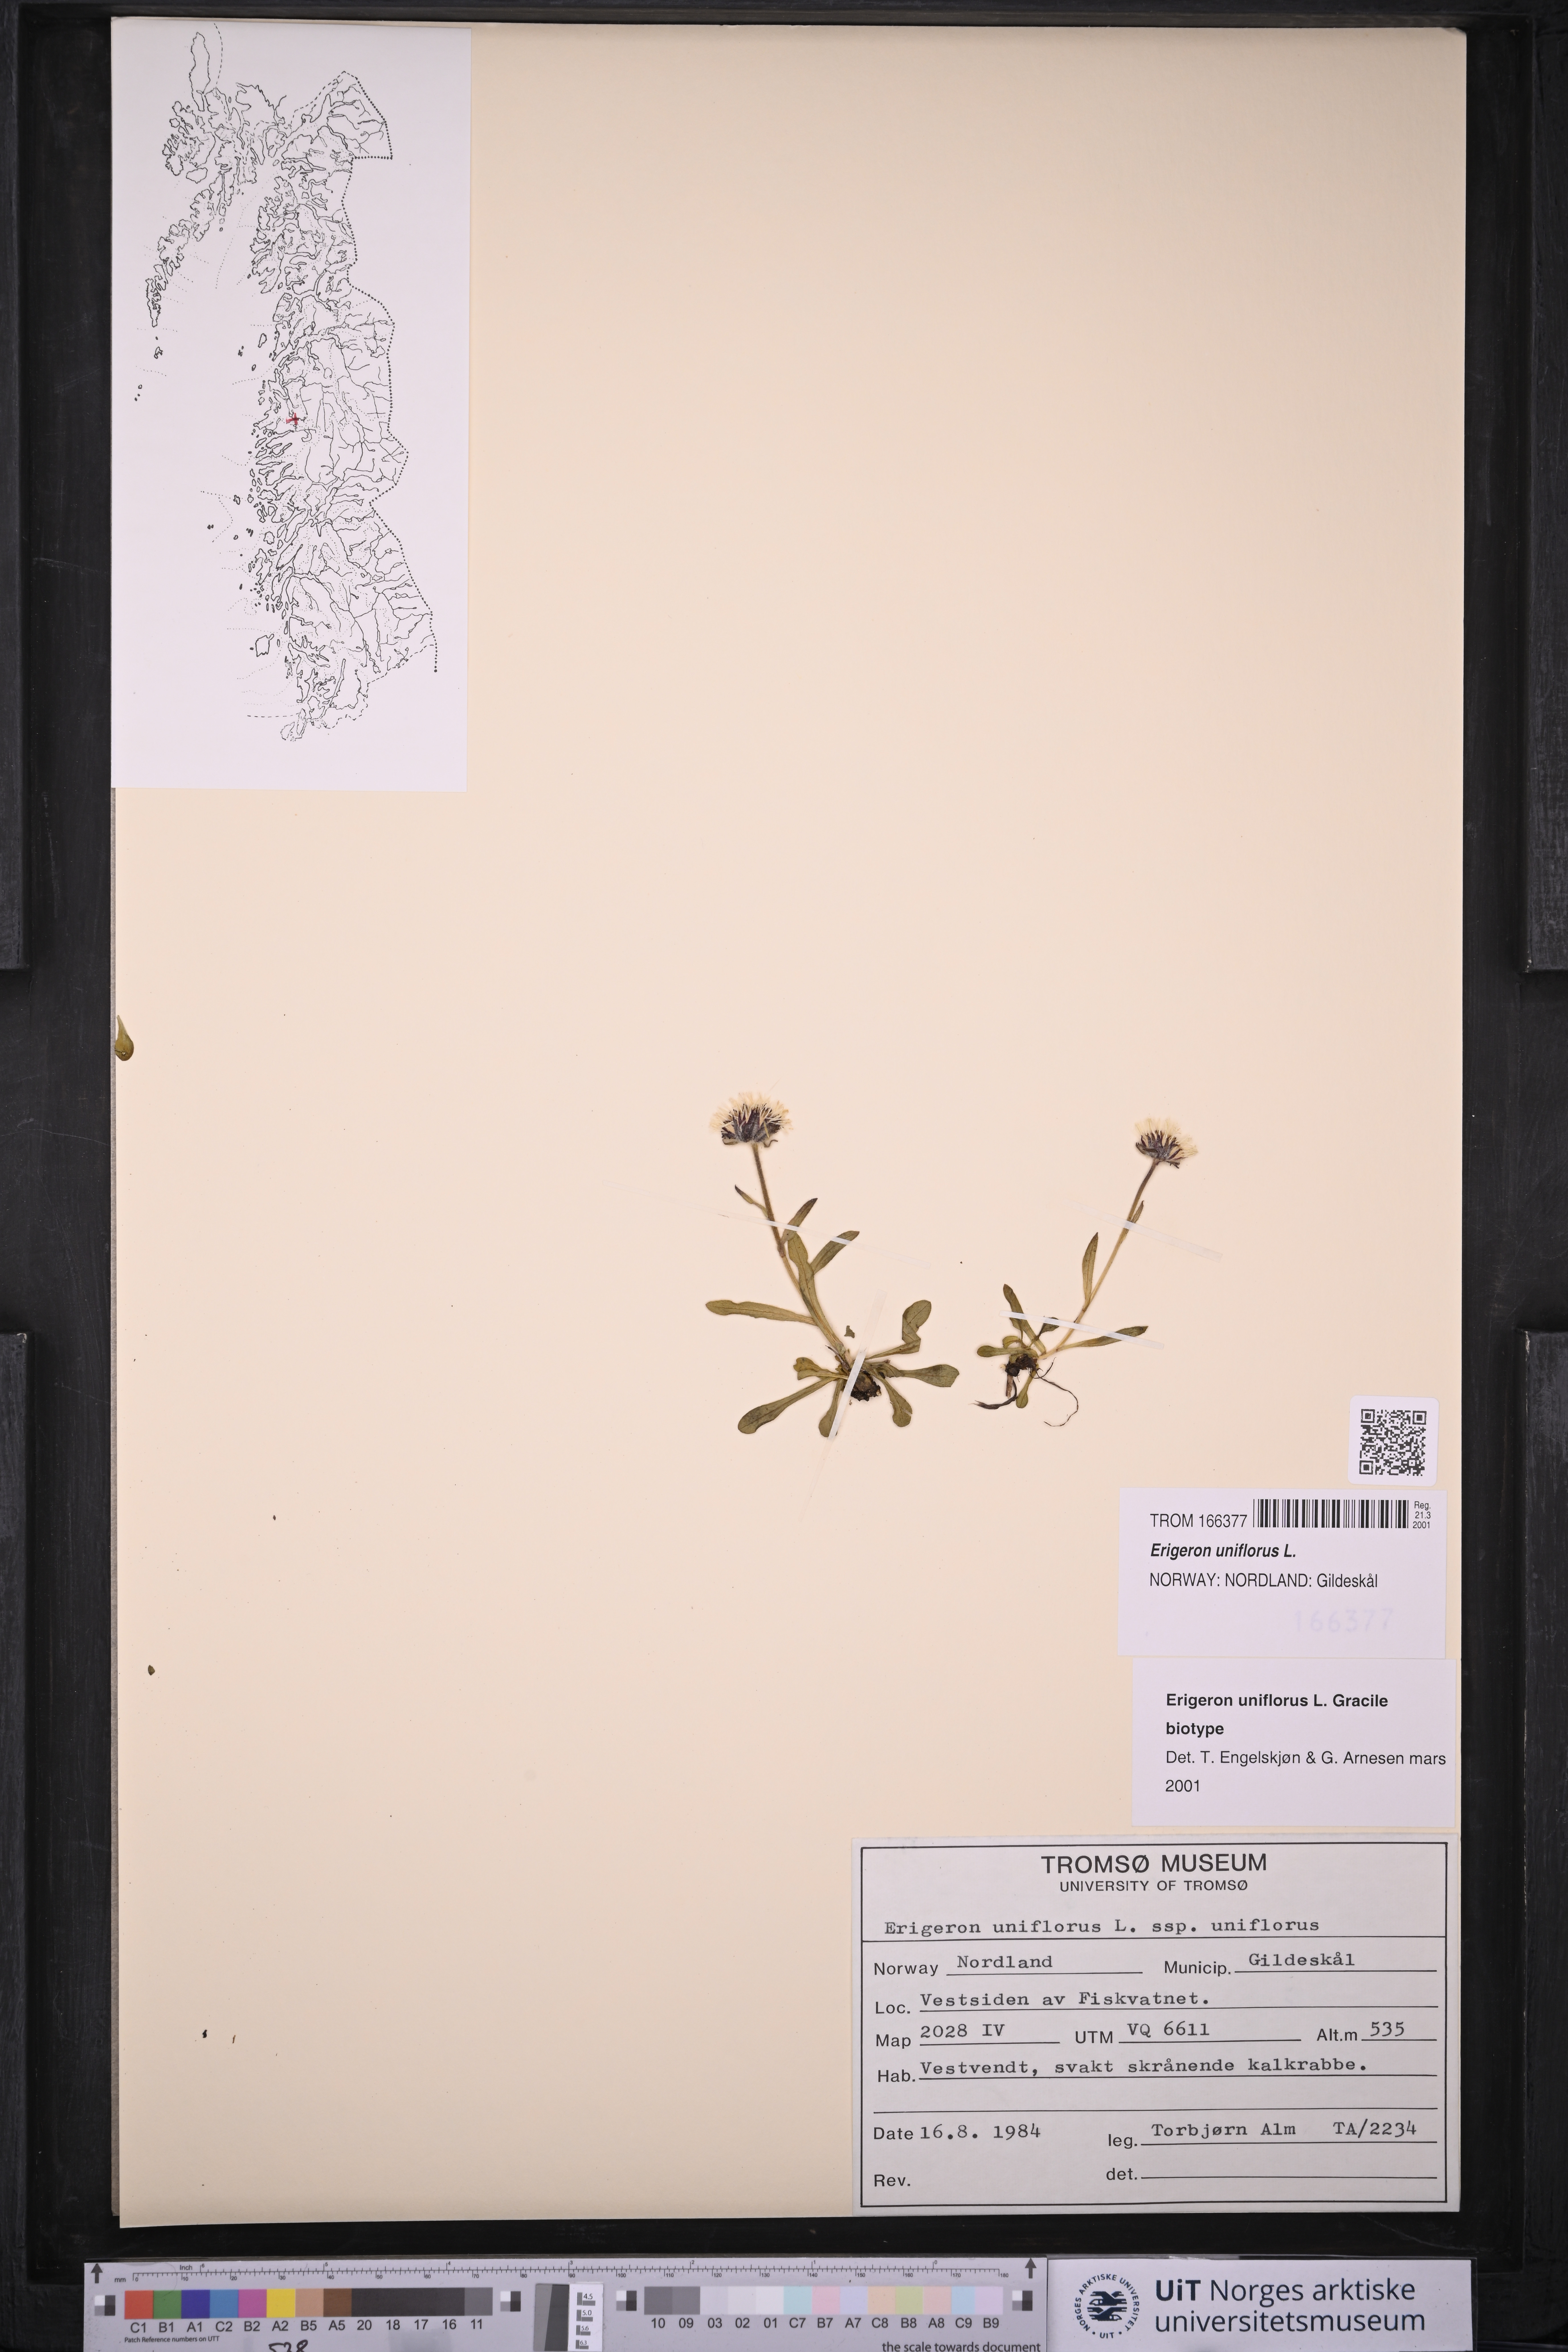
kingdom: Plantae
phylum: Tracheophyta
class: Magnoliopsida
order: Asterales
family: Asteraceae
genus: Erigeron
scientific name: Erigeron uniflorus
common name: Northern daisy
